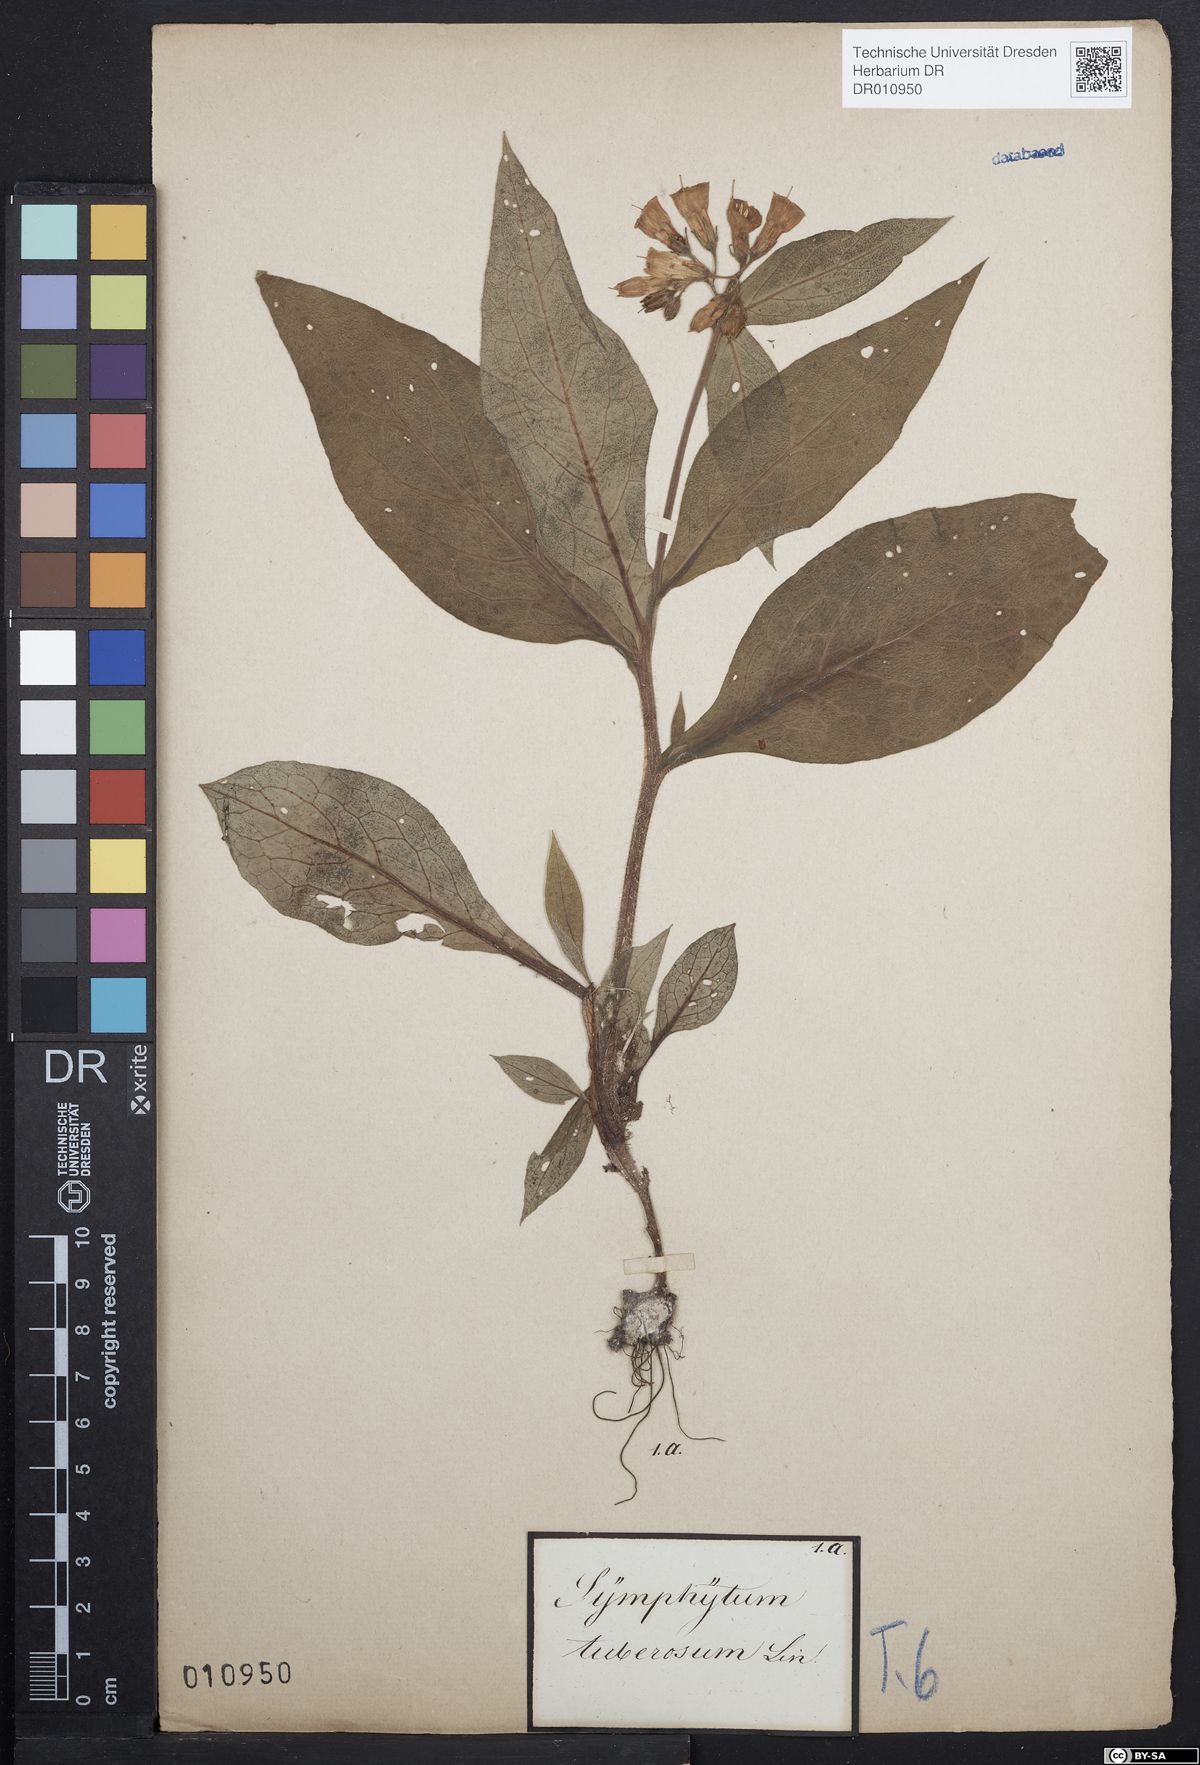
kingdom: Plantae
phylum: Tracheophyta
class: Magnoliopsida
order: Boraginales
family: Boraginaceae
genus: Symphytum
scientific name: Symphytum tuberosum
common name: Tuberous comfrey
